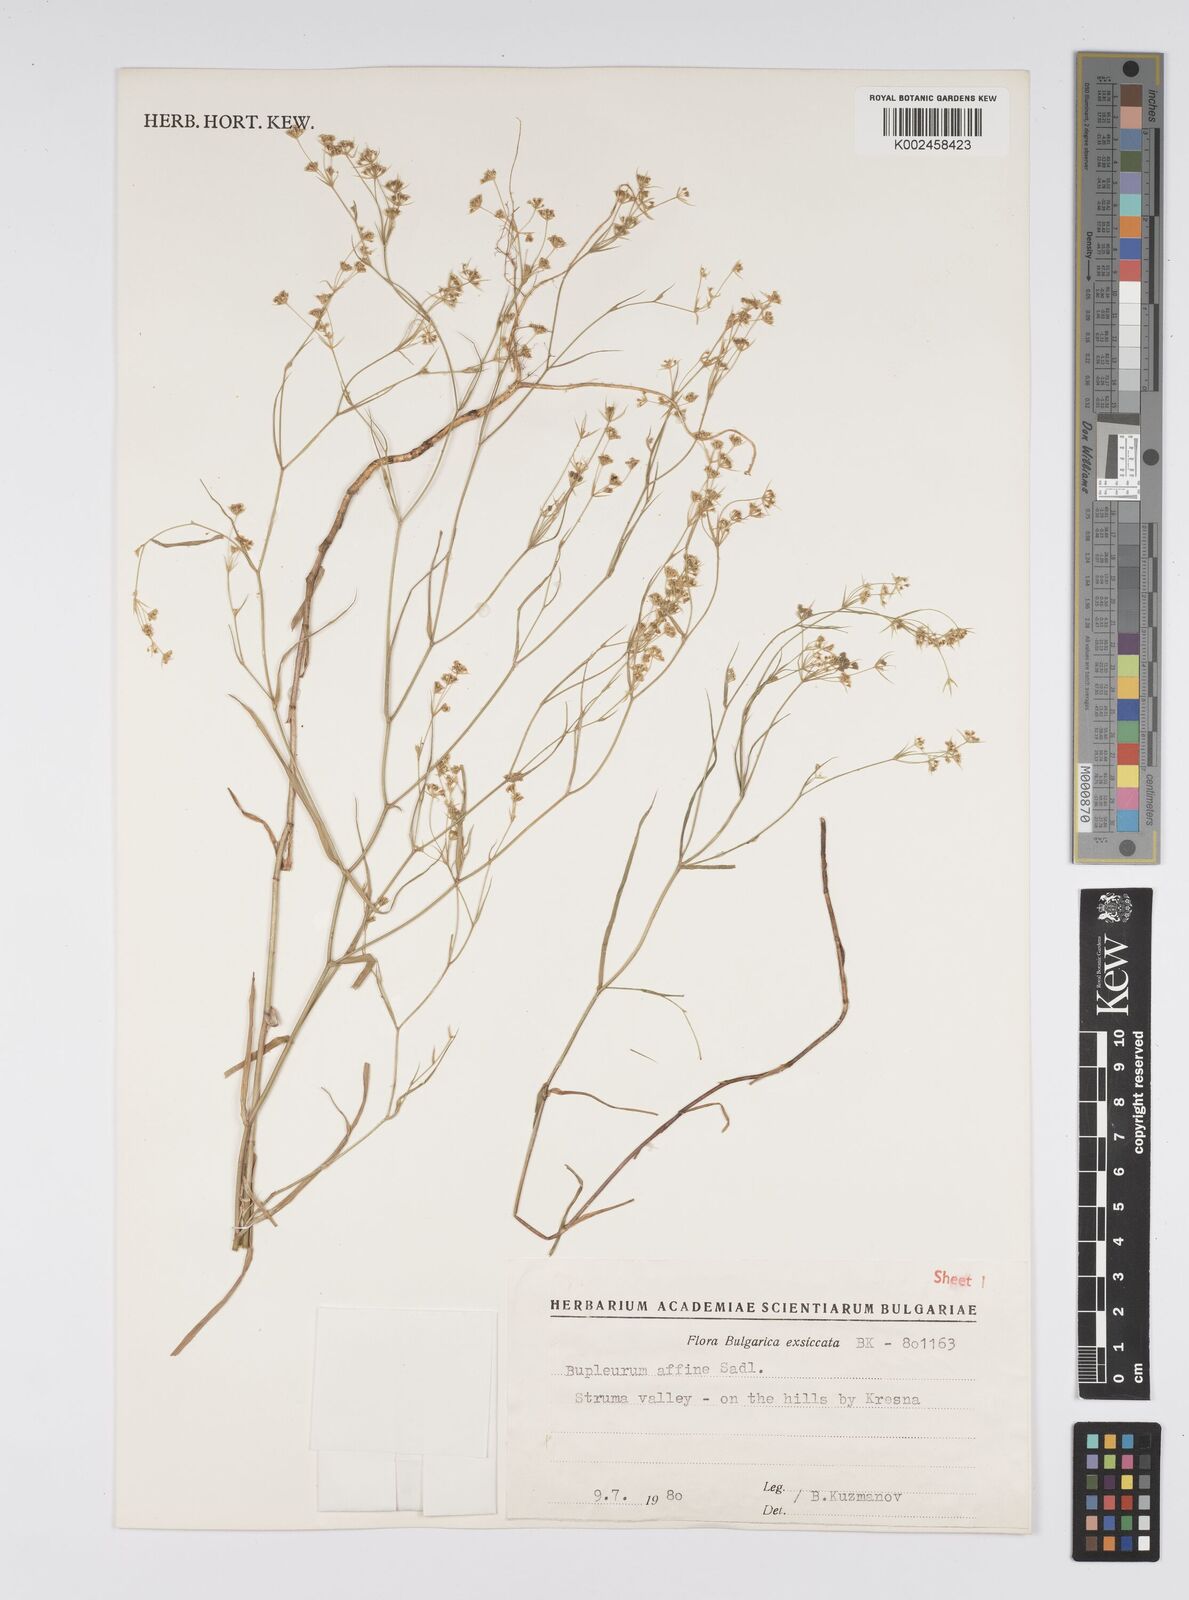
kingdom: Plantae
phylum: Tracheophyta
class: Magnoliopsida
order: Apiales
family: Apiaceae
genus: Bupleurum
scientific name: Bupleurum affine
